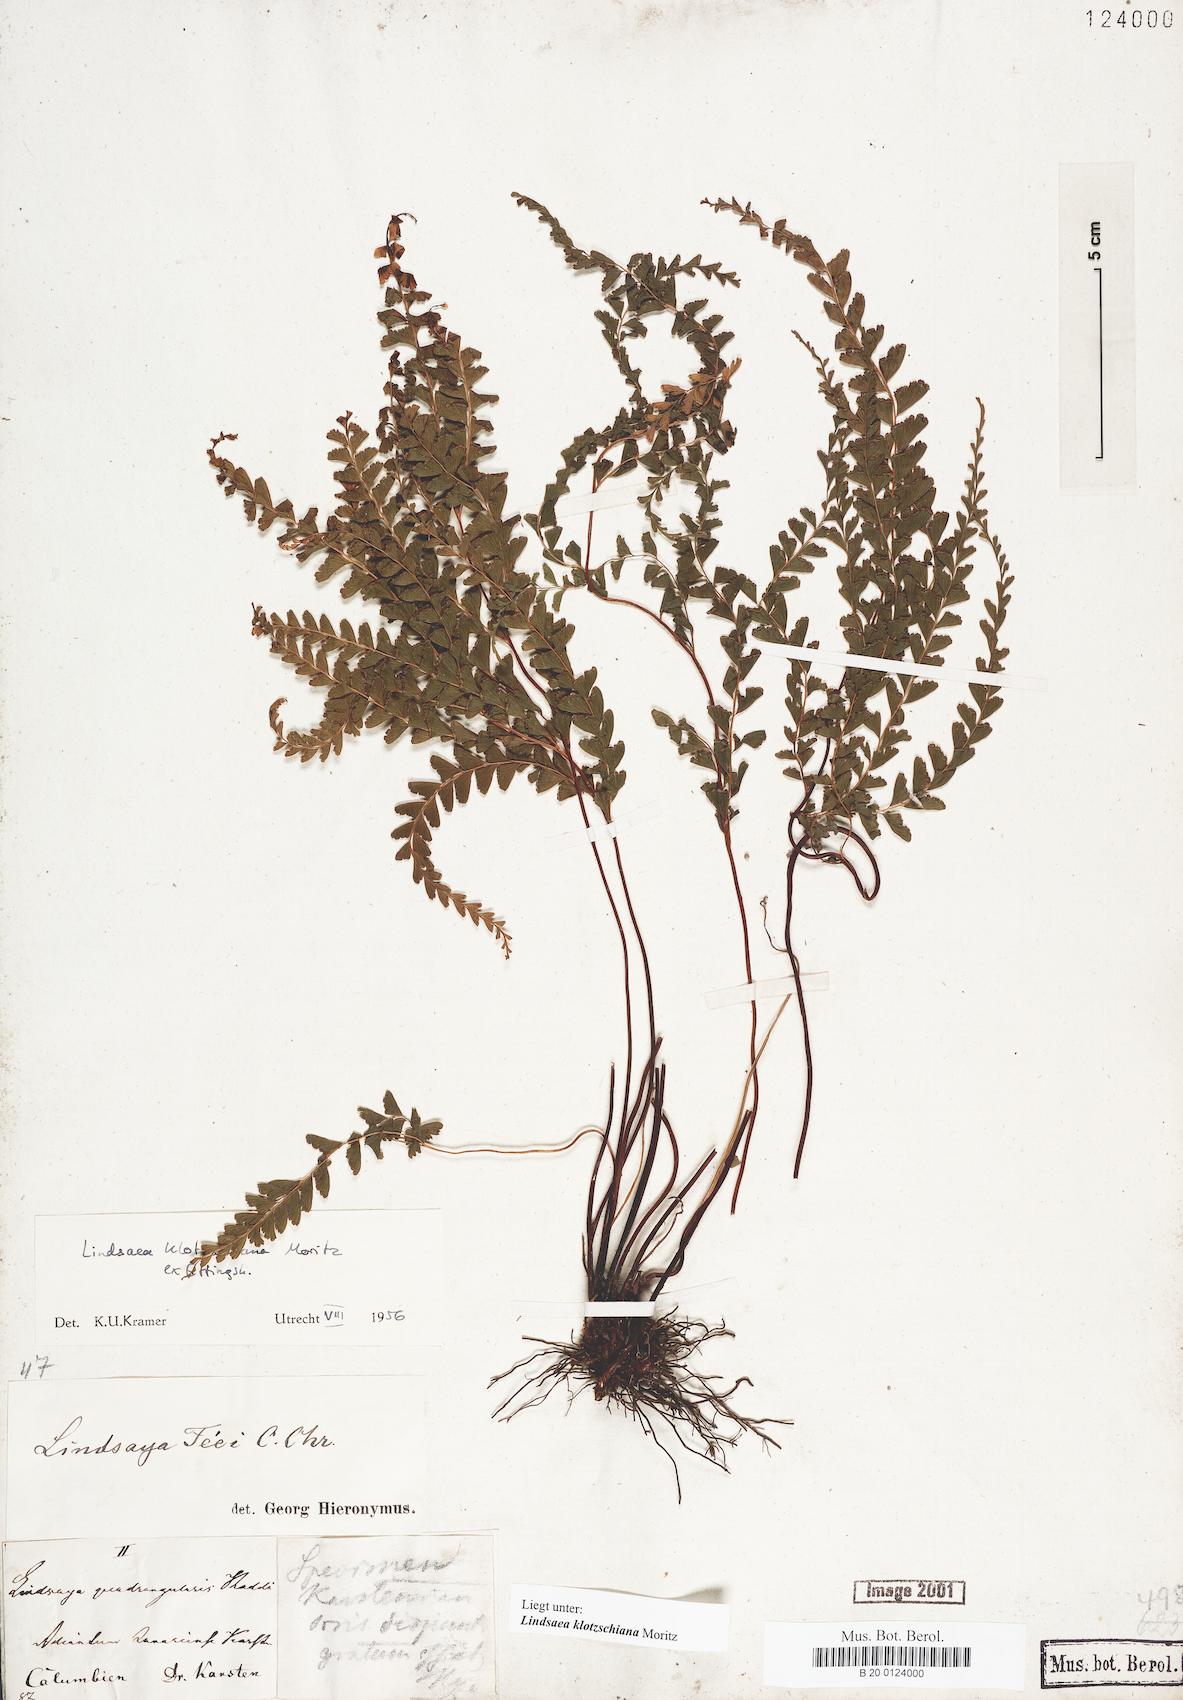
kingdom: Plantae
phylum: Tracheophyta
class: Polypodiopsida
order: Polypodiales
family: Lindsaeaceae
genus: Lindsaea
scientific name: Lindsaea klotzschiana
